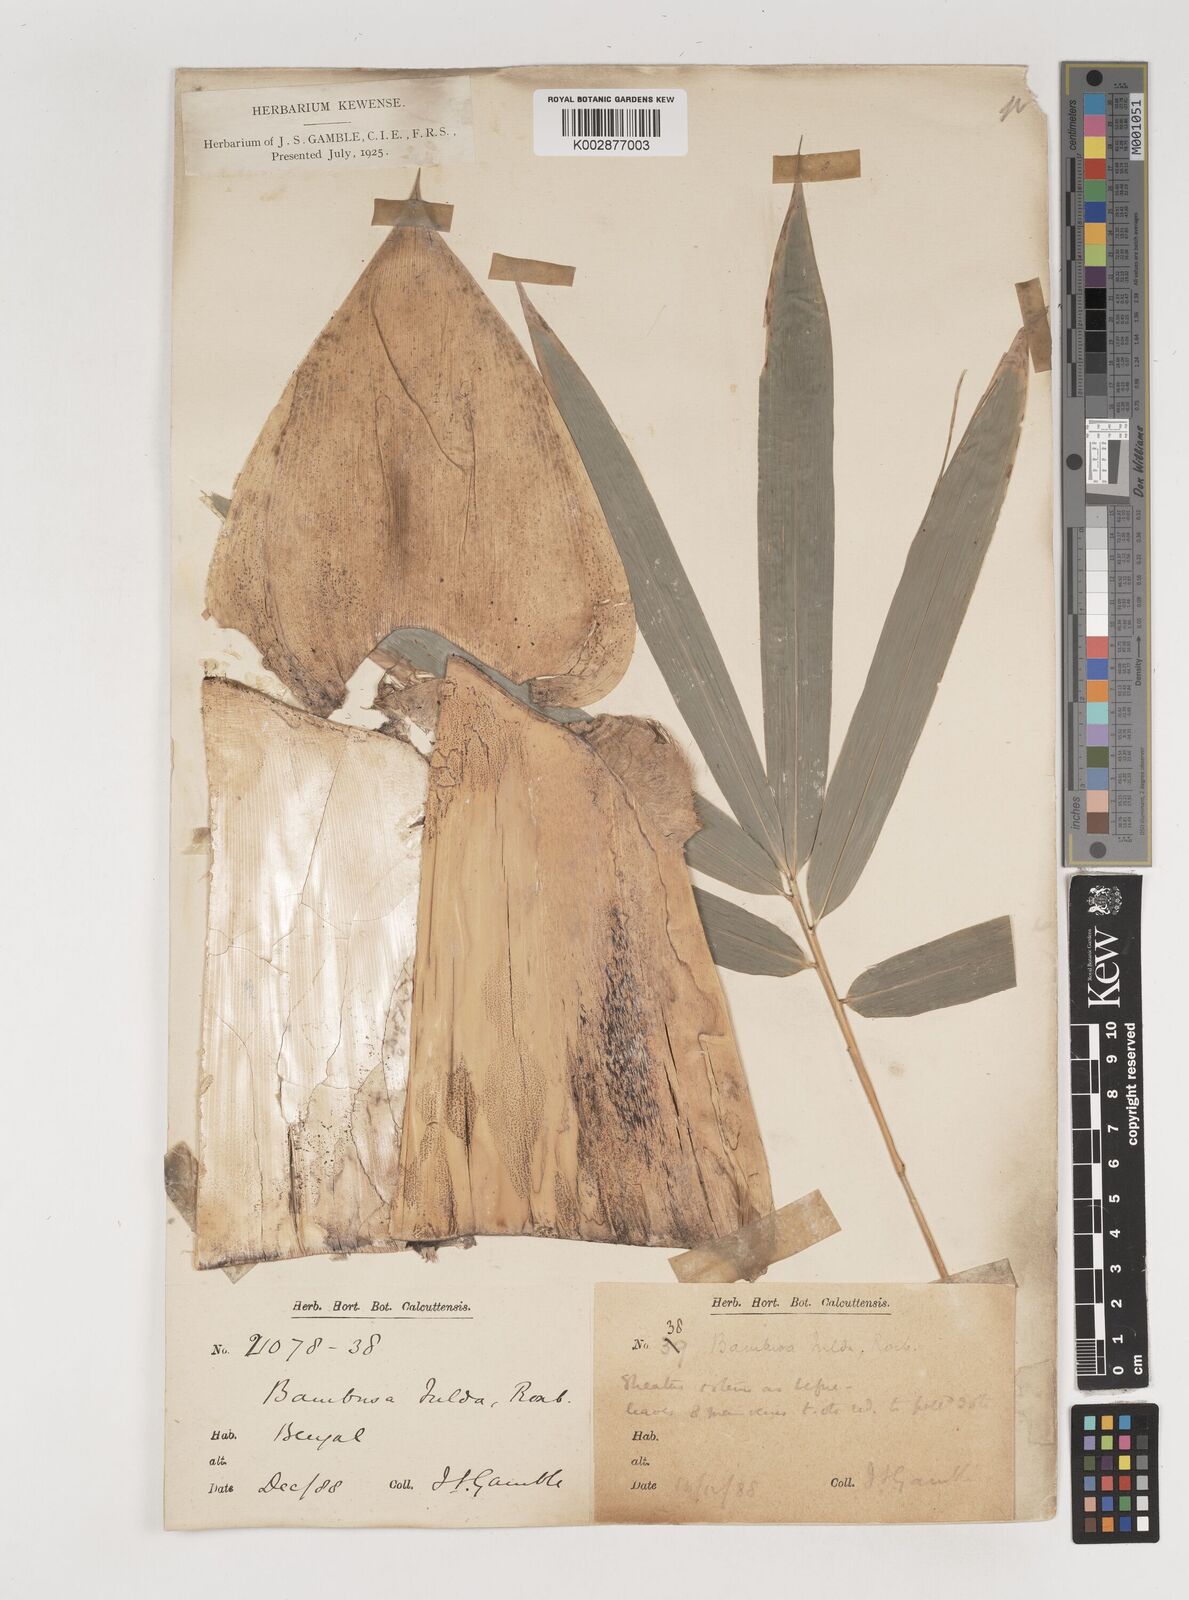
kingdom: Plantae
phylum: Tracheophyta
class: Liliopsida
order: Poales
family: Poaceae
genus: Bambusa
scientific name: Bambusa tulda
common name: Bengal bamboo
